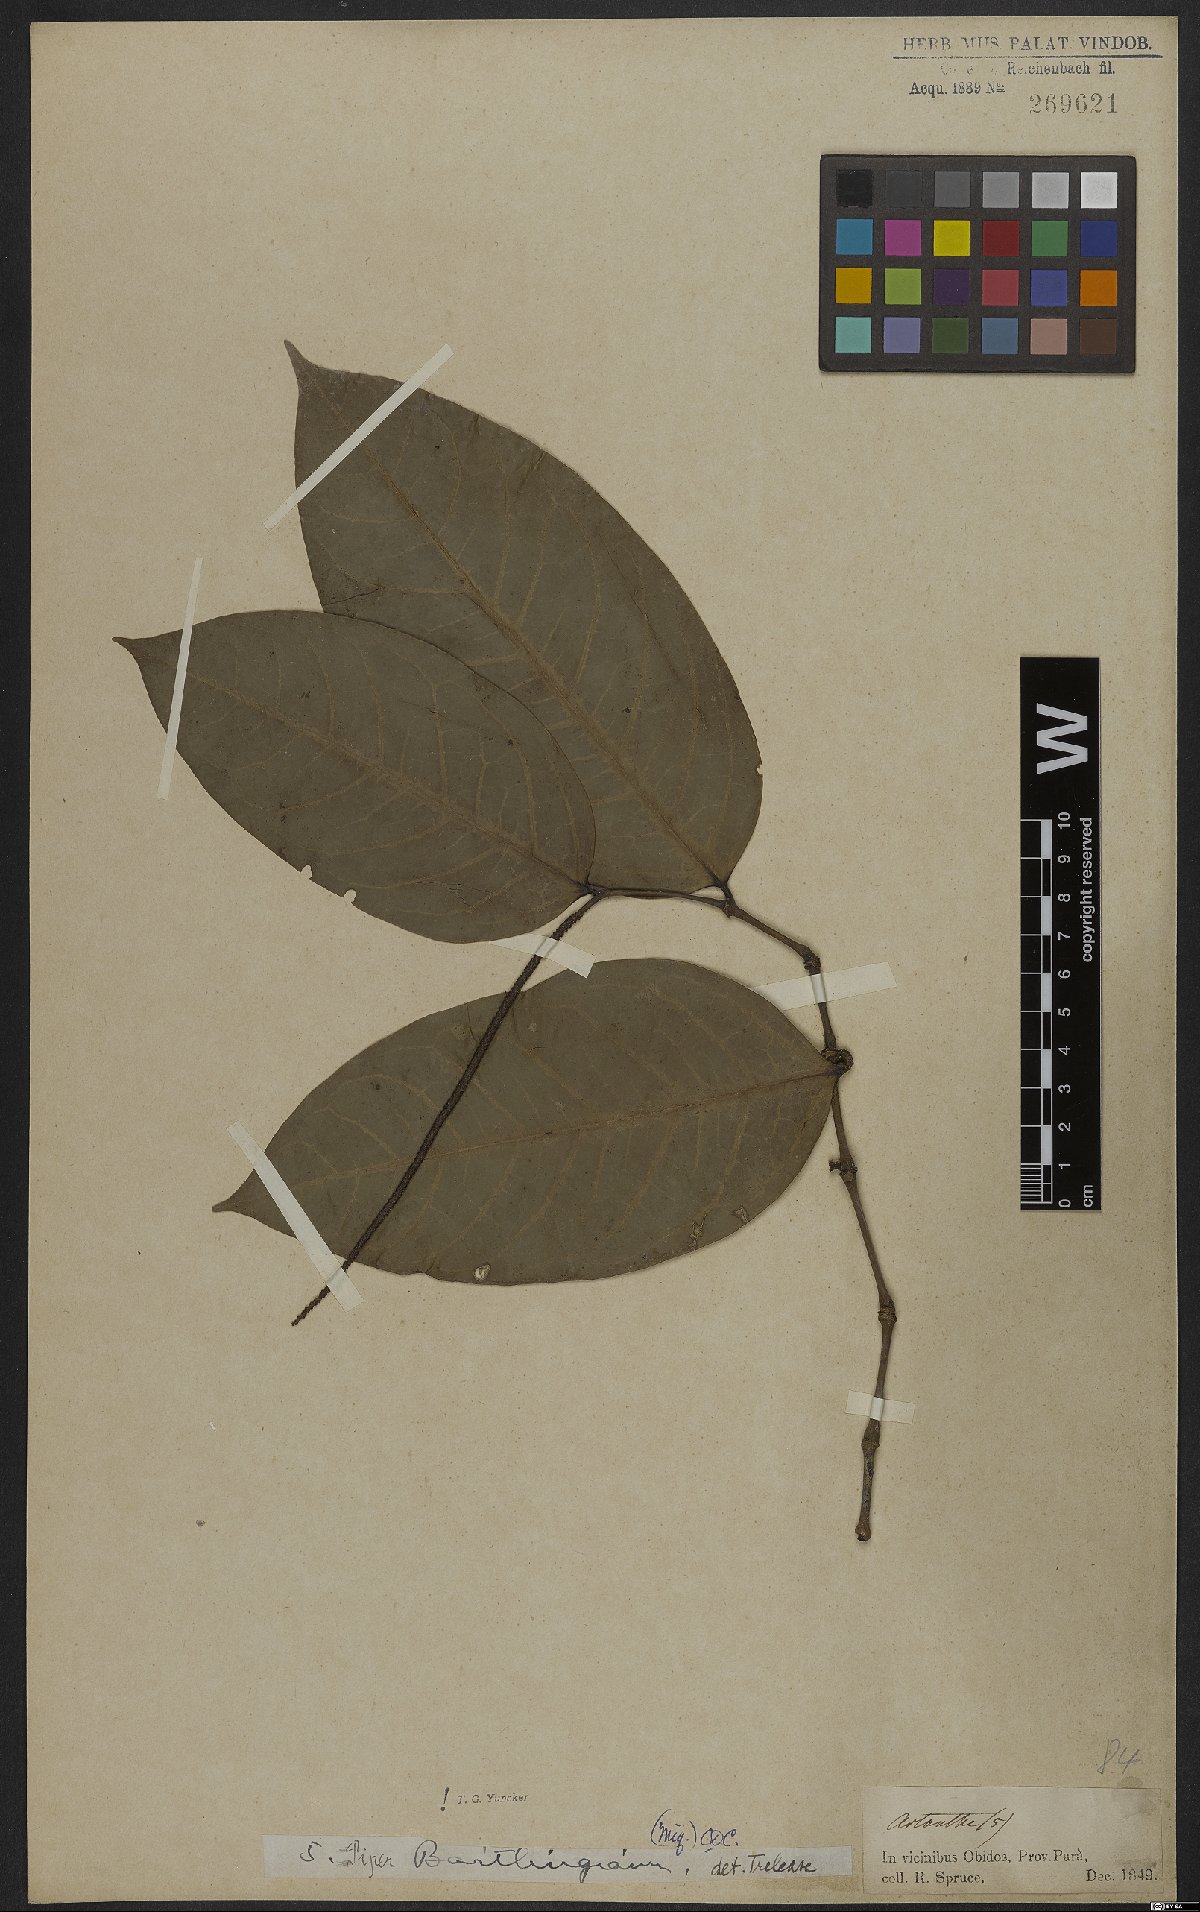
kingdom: Plantae
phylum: Tracheophyta
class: Magnoliopsida
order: Piperales
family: Piperaceae
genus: Piper
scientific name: Piper bartlingianum
